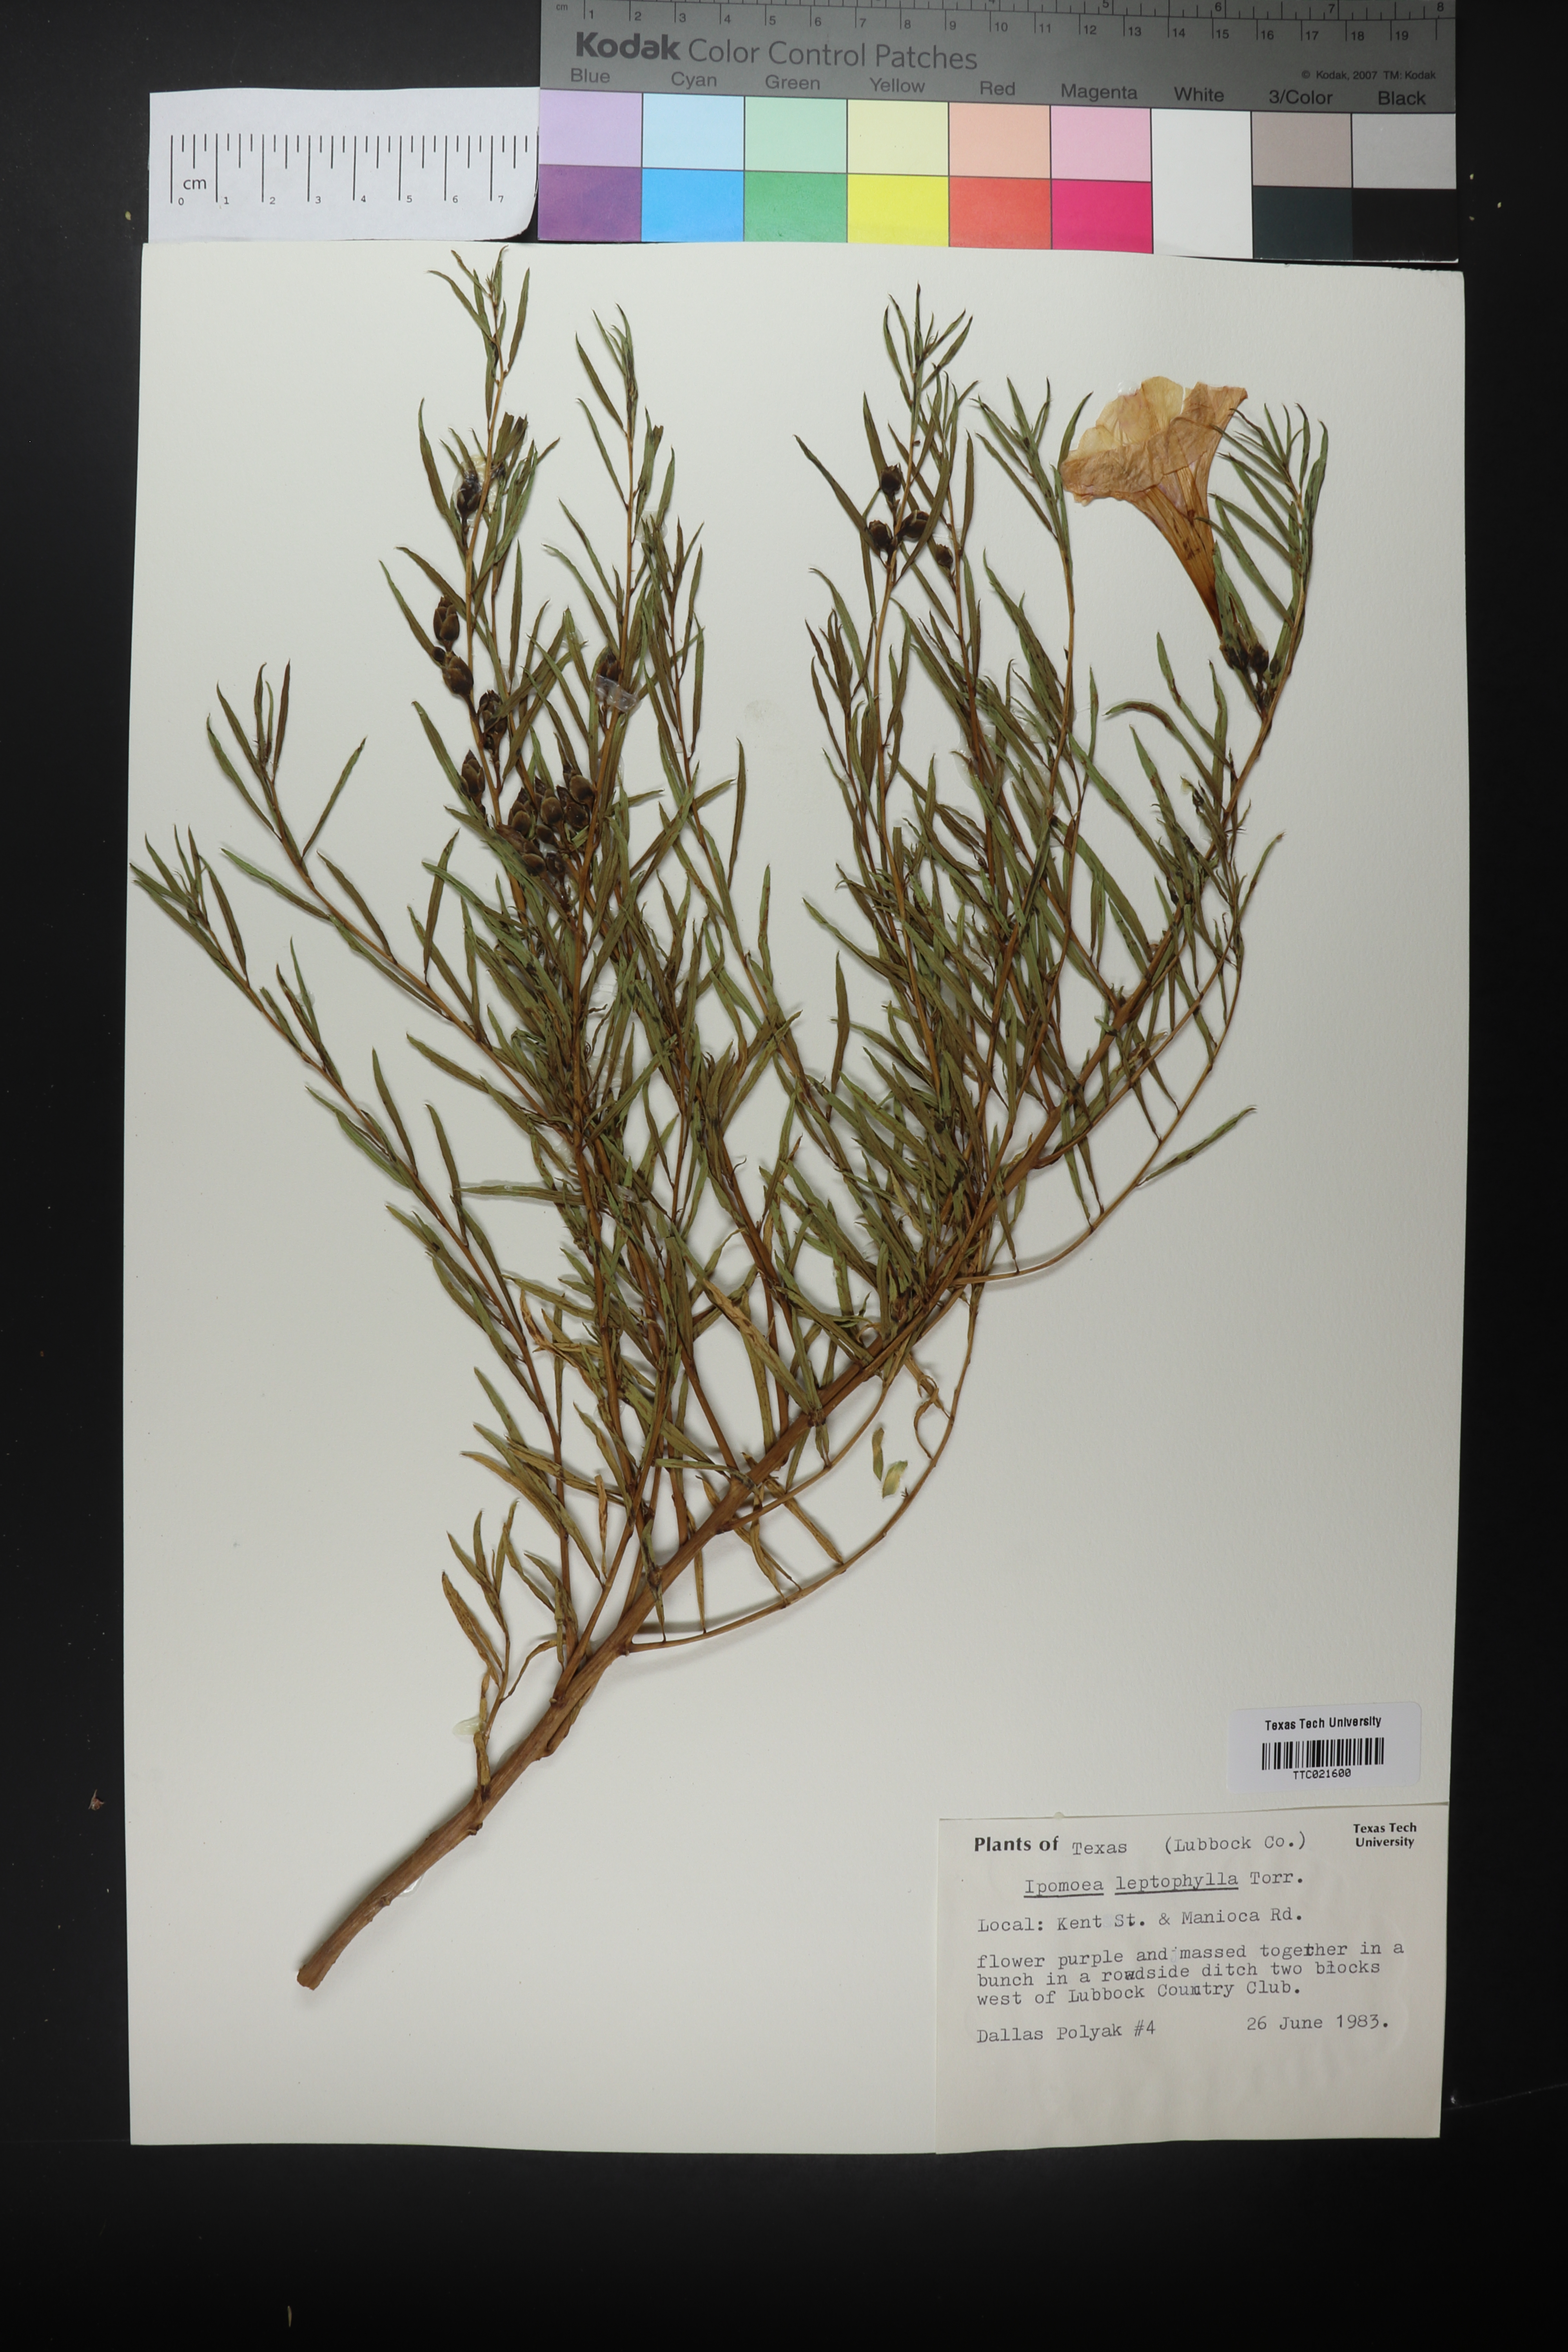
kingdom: Plantae
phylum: Tracheophyta
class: Magnoliopsida
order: Solanales
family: Convolvulaceae
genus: Ipomoea
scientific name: Ipomoea leptophylla
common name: Bush moonflower
